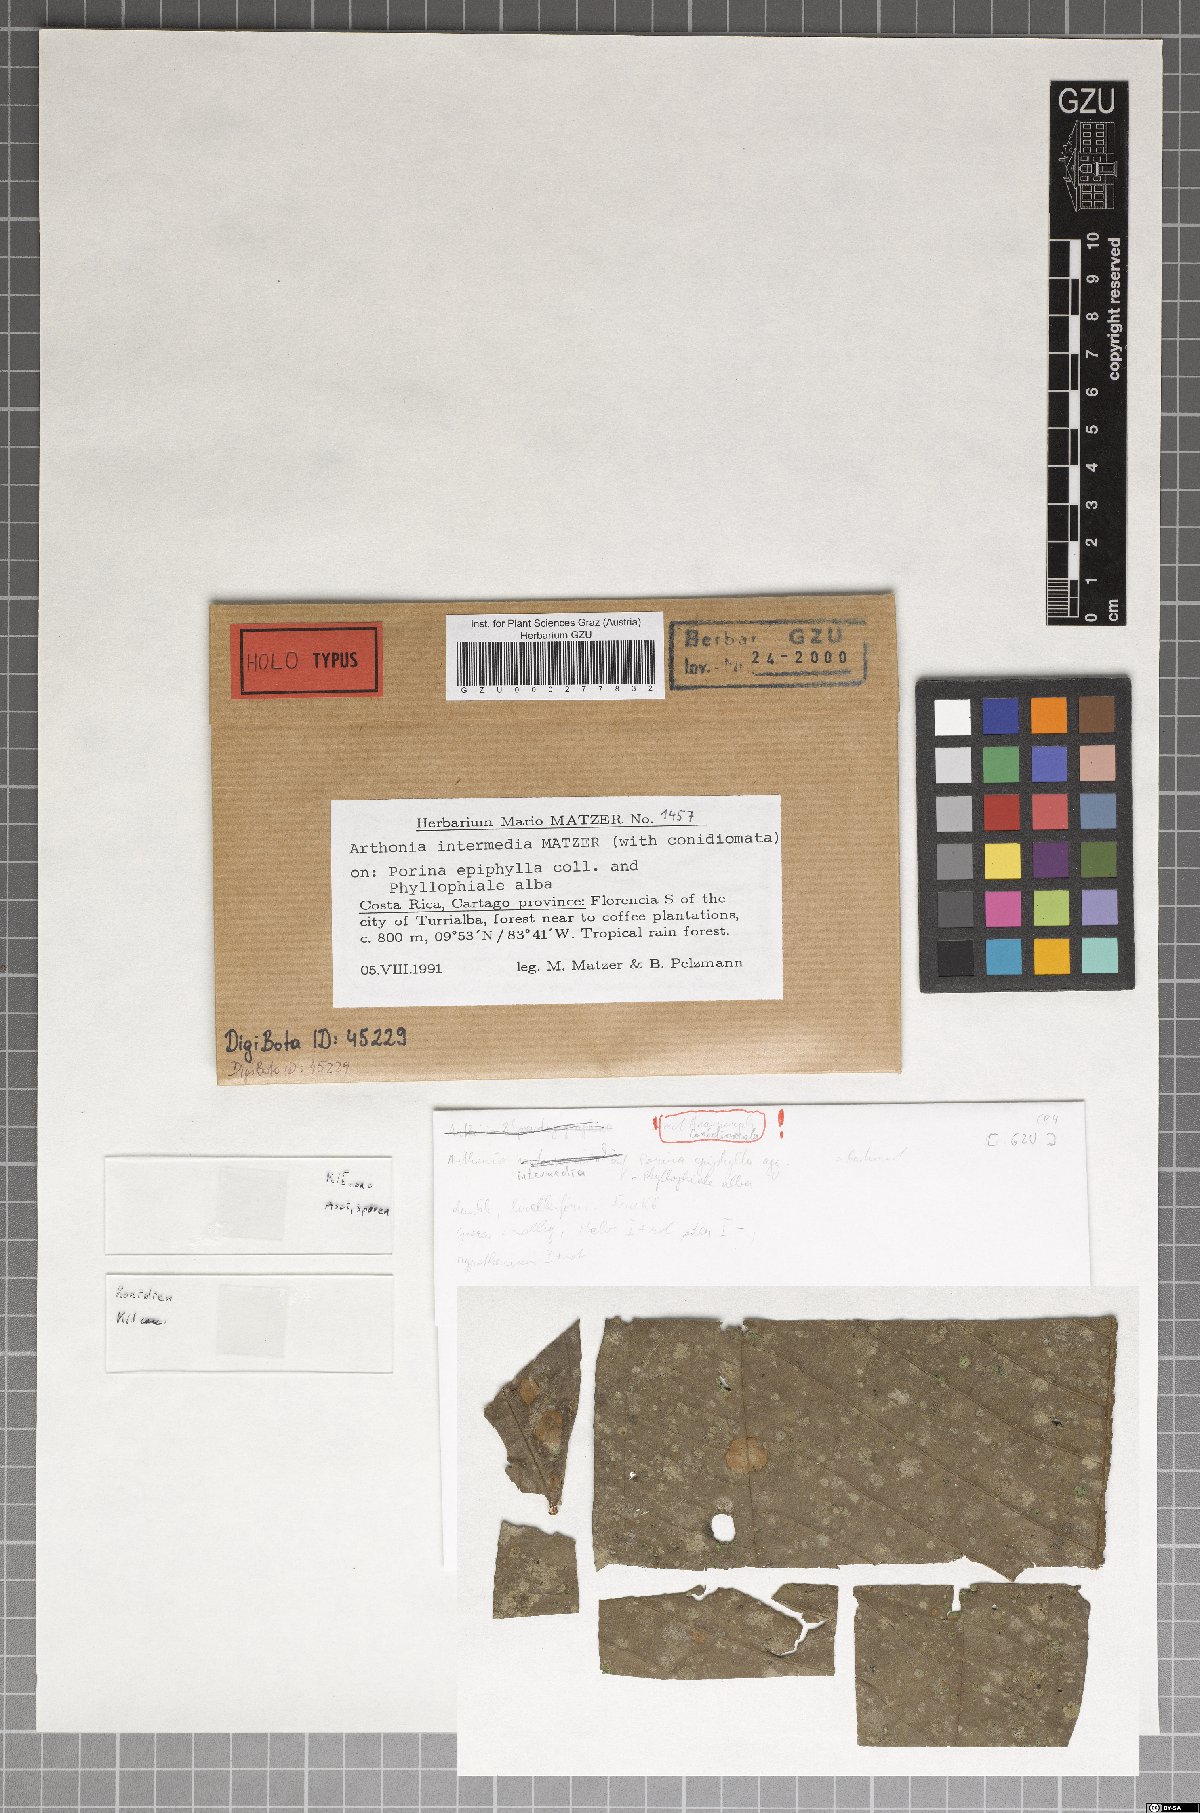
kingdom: Fungi
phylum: Ascomycota
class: Arthoniomycetes
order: Arthoniales
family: Arthoniaceae
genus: Arthonia
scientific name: Arthonia
